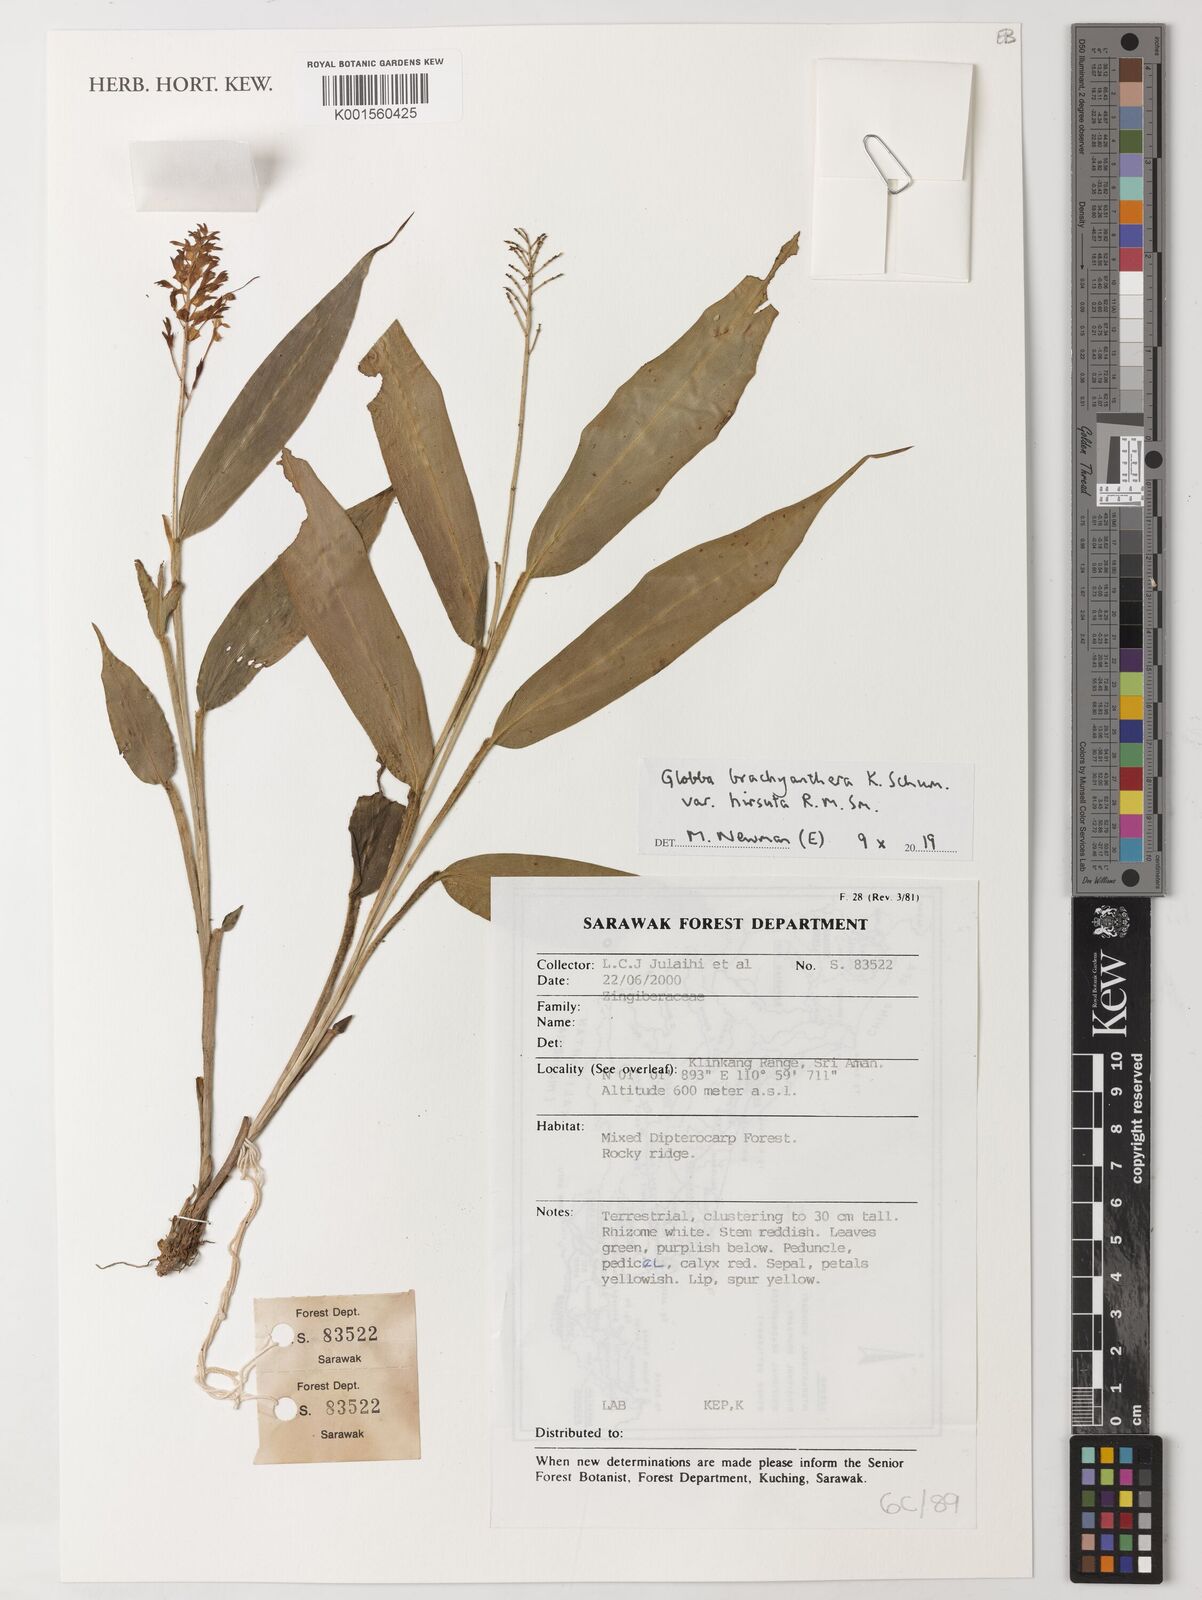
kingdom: Plantae
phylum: Tracheophyta
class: Liliopsida
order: Zingiberales
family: Zingiberaceae
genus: Globba
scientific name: Globba brachyanthera
